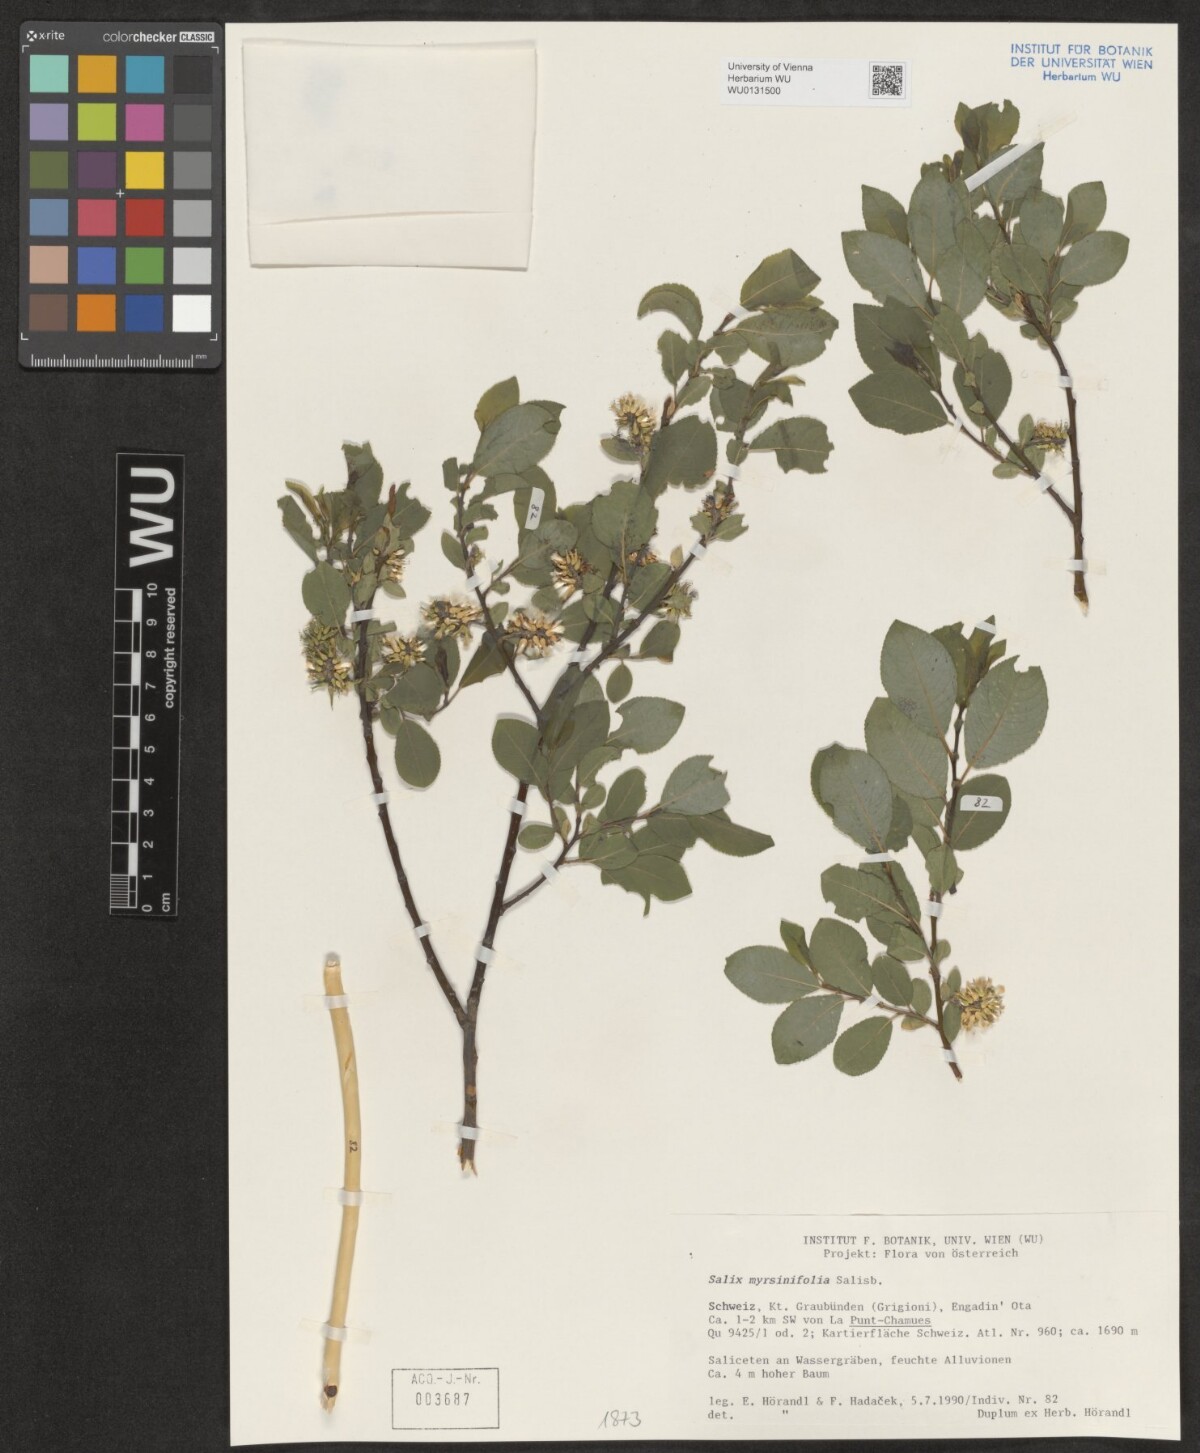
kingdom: Plantae
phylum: Tracheophyta
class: Magnoliopsida
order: Malpighiales
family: Salicaceae
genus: Salix
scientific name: Salix myrsinifolia
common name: Dark-leaved willow
